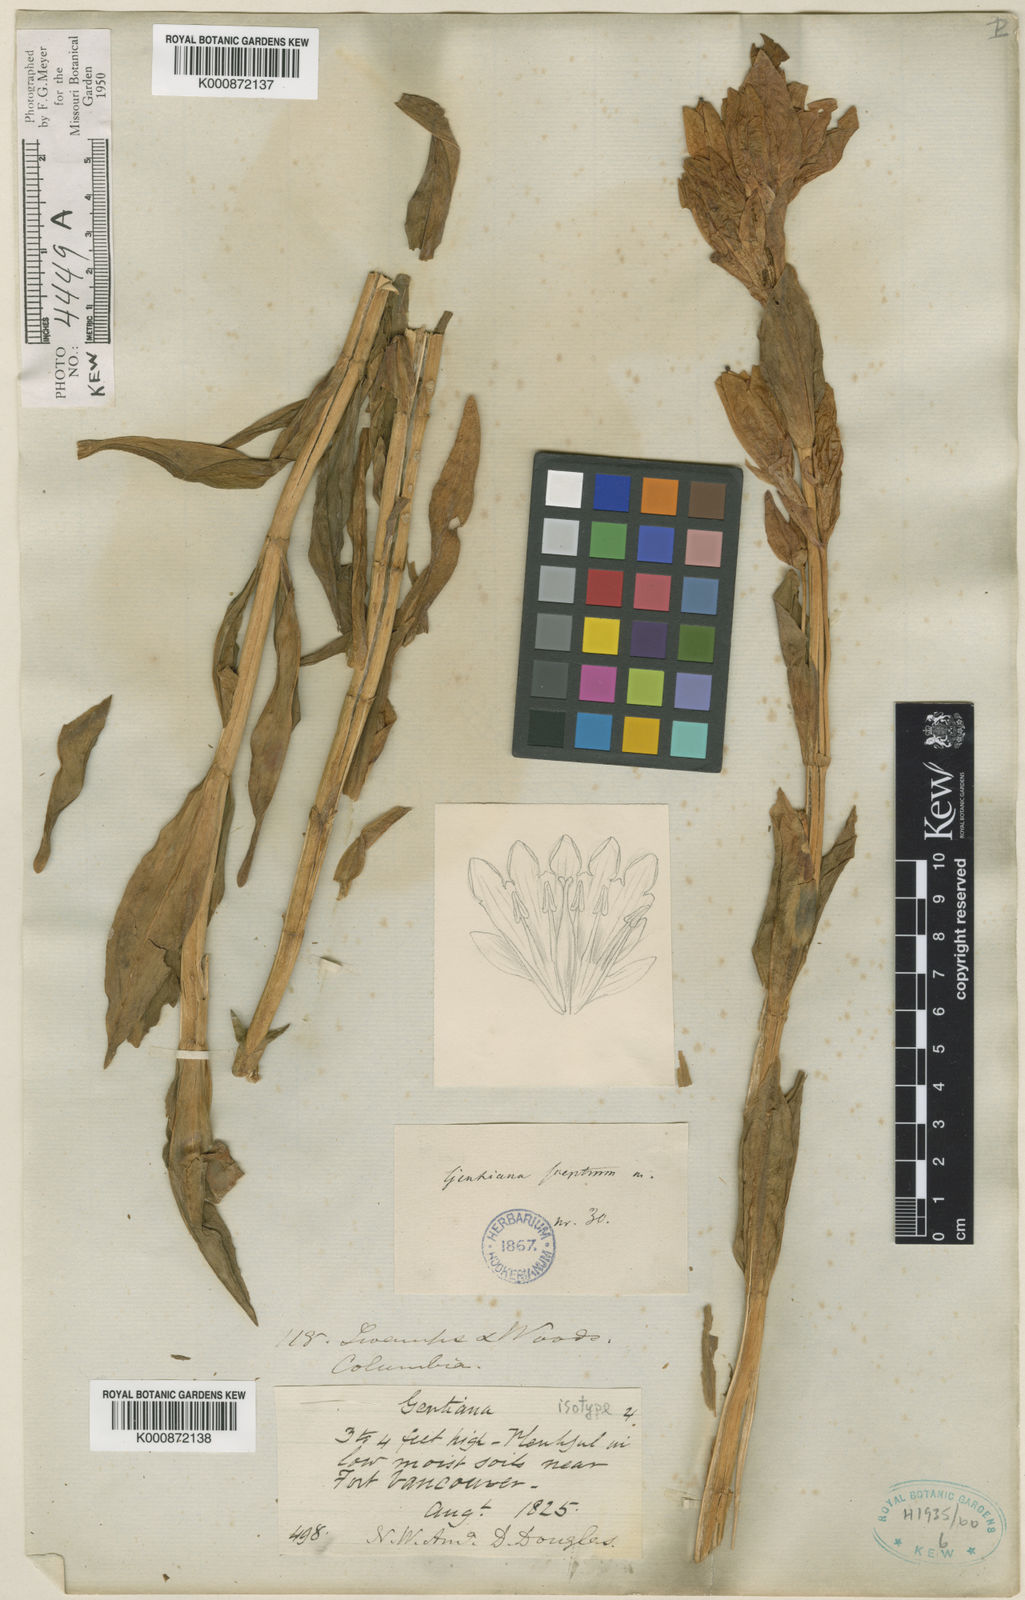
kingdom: Plantae
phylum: Tracheophyta
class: Magnoliopsida
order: Gentianales
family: Gentianaceae
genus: Gentiana
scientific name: Gentiana sceptrum
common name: Pacific gentian
